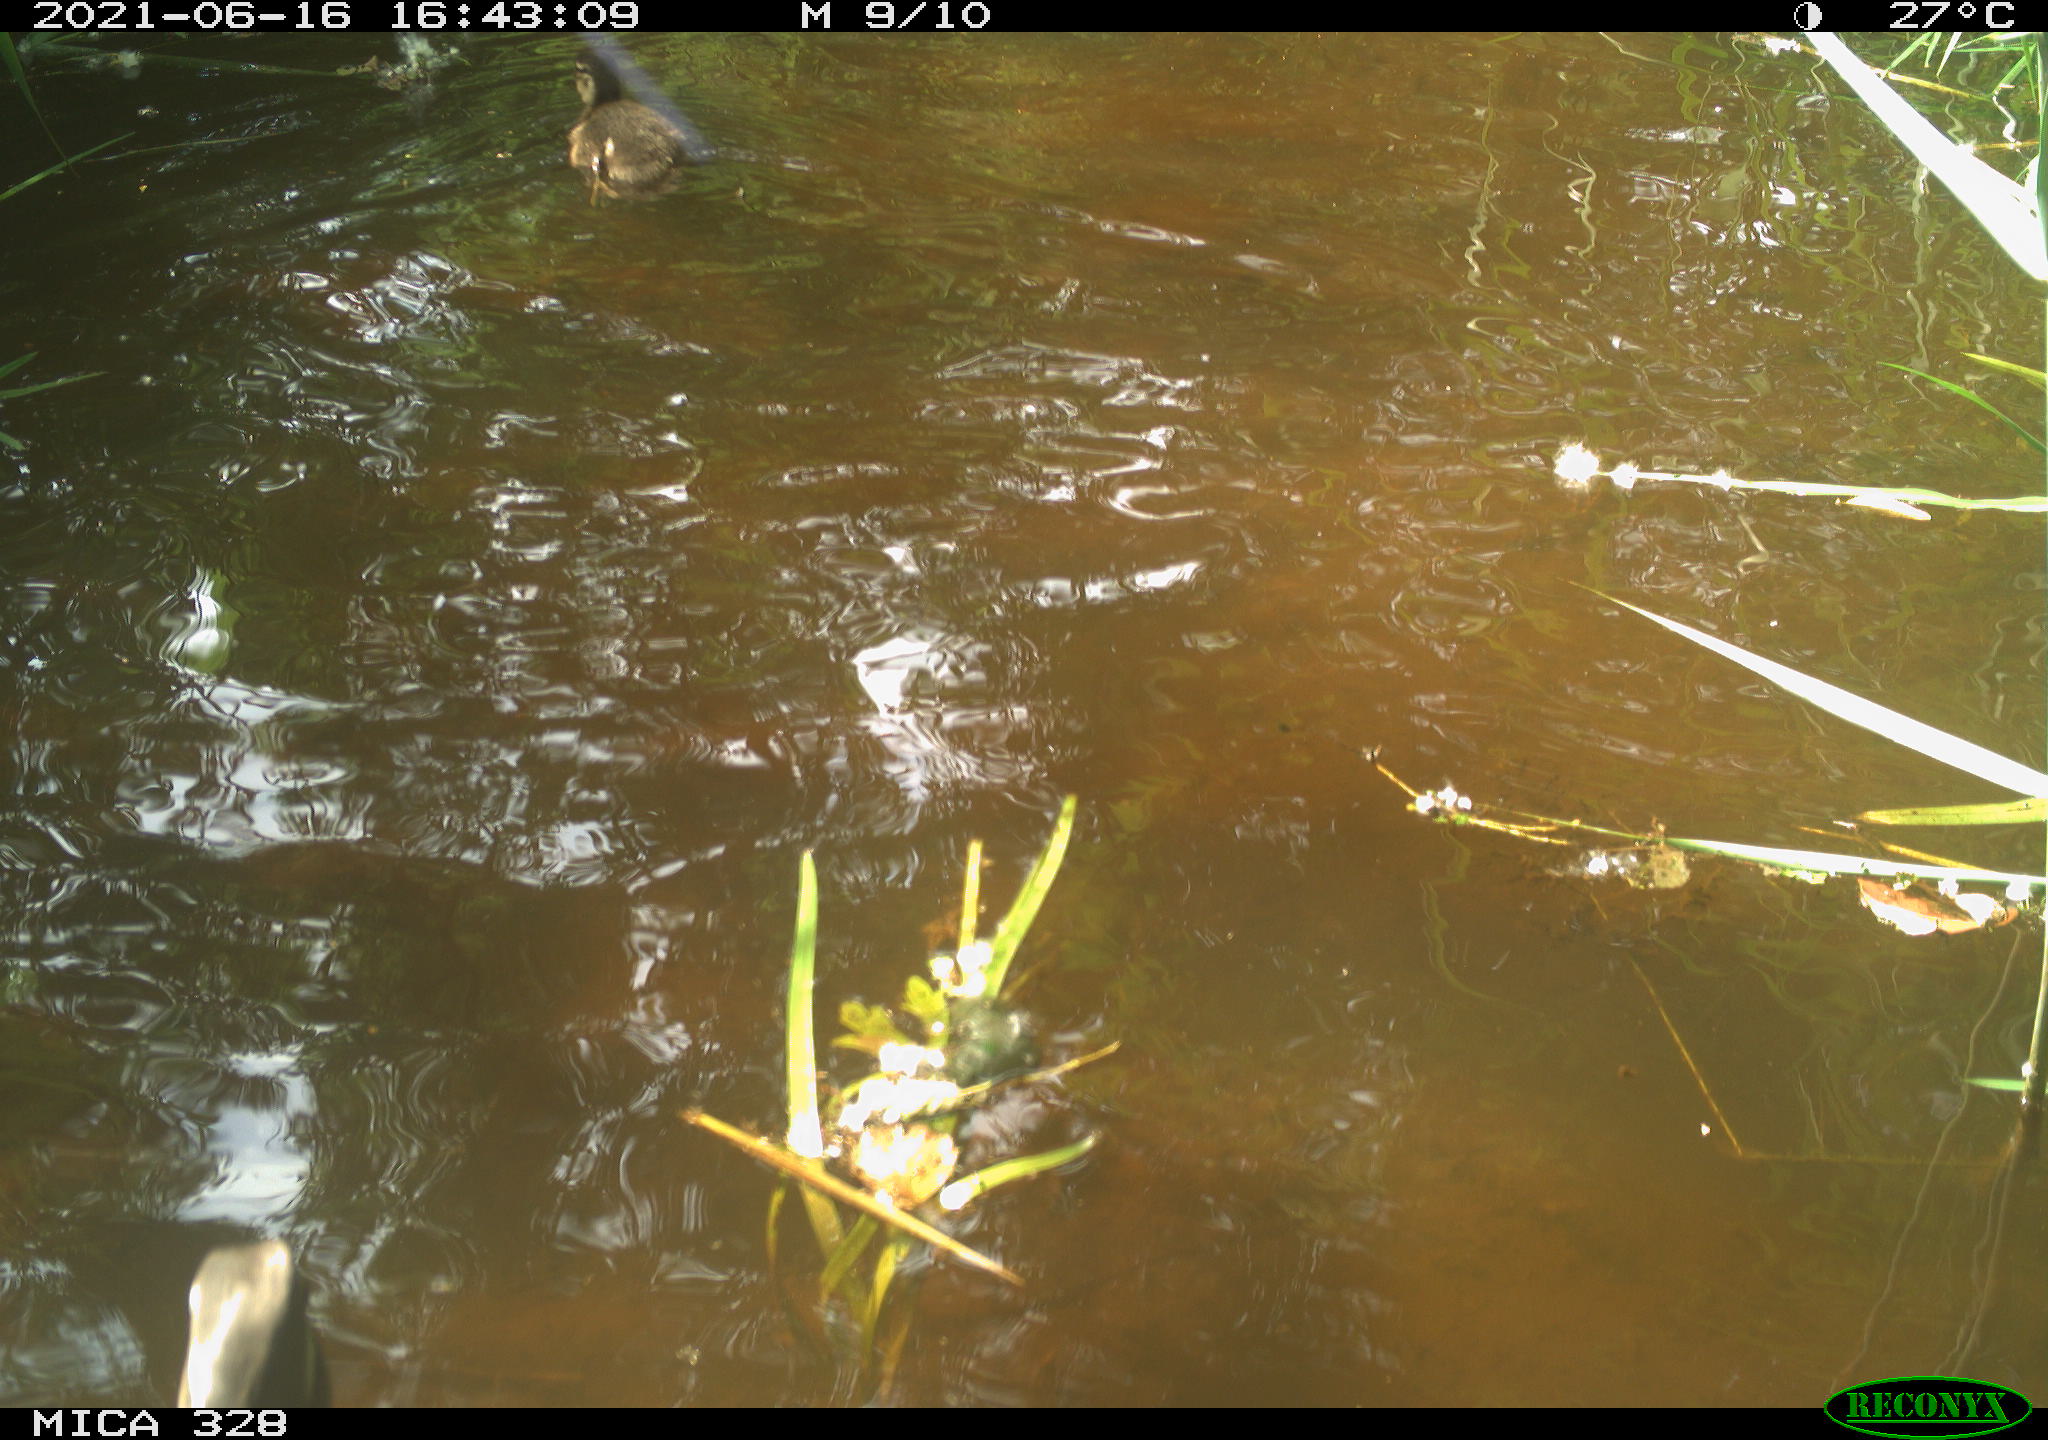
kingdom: Animalia
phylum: Chordata
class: Aves
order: Anseriformes
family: Anatidae
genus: Aix
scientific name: Aix galericulata
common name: Mandarin duck
